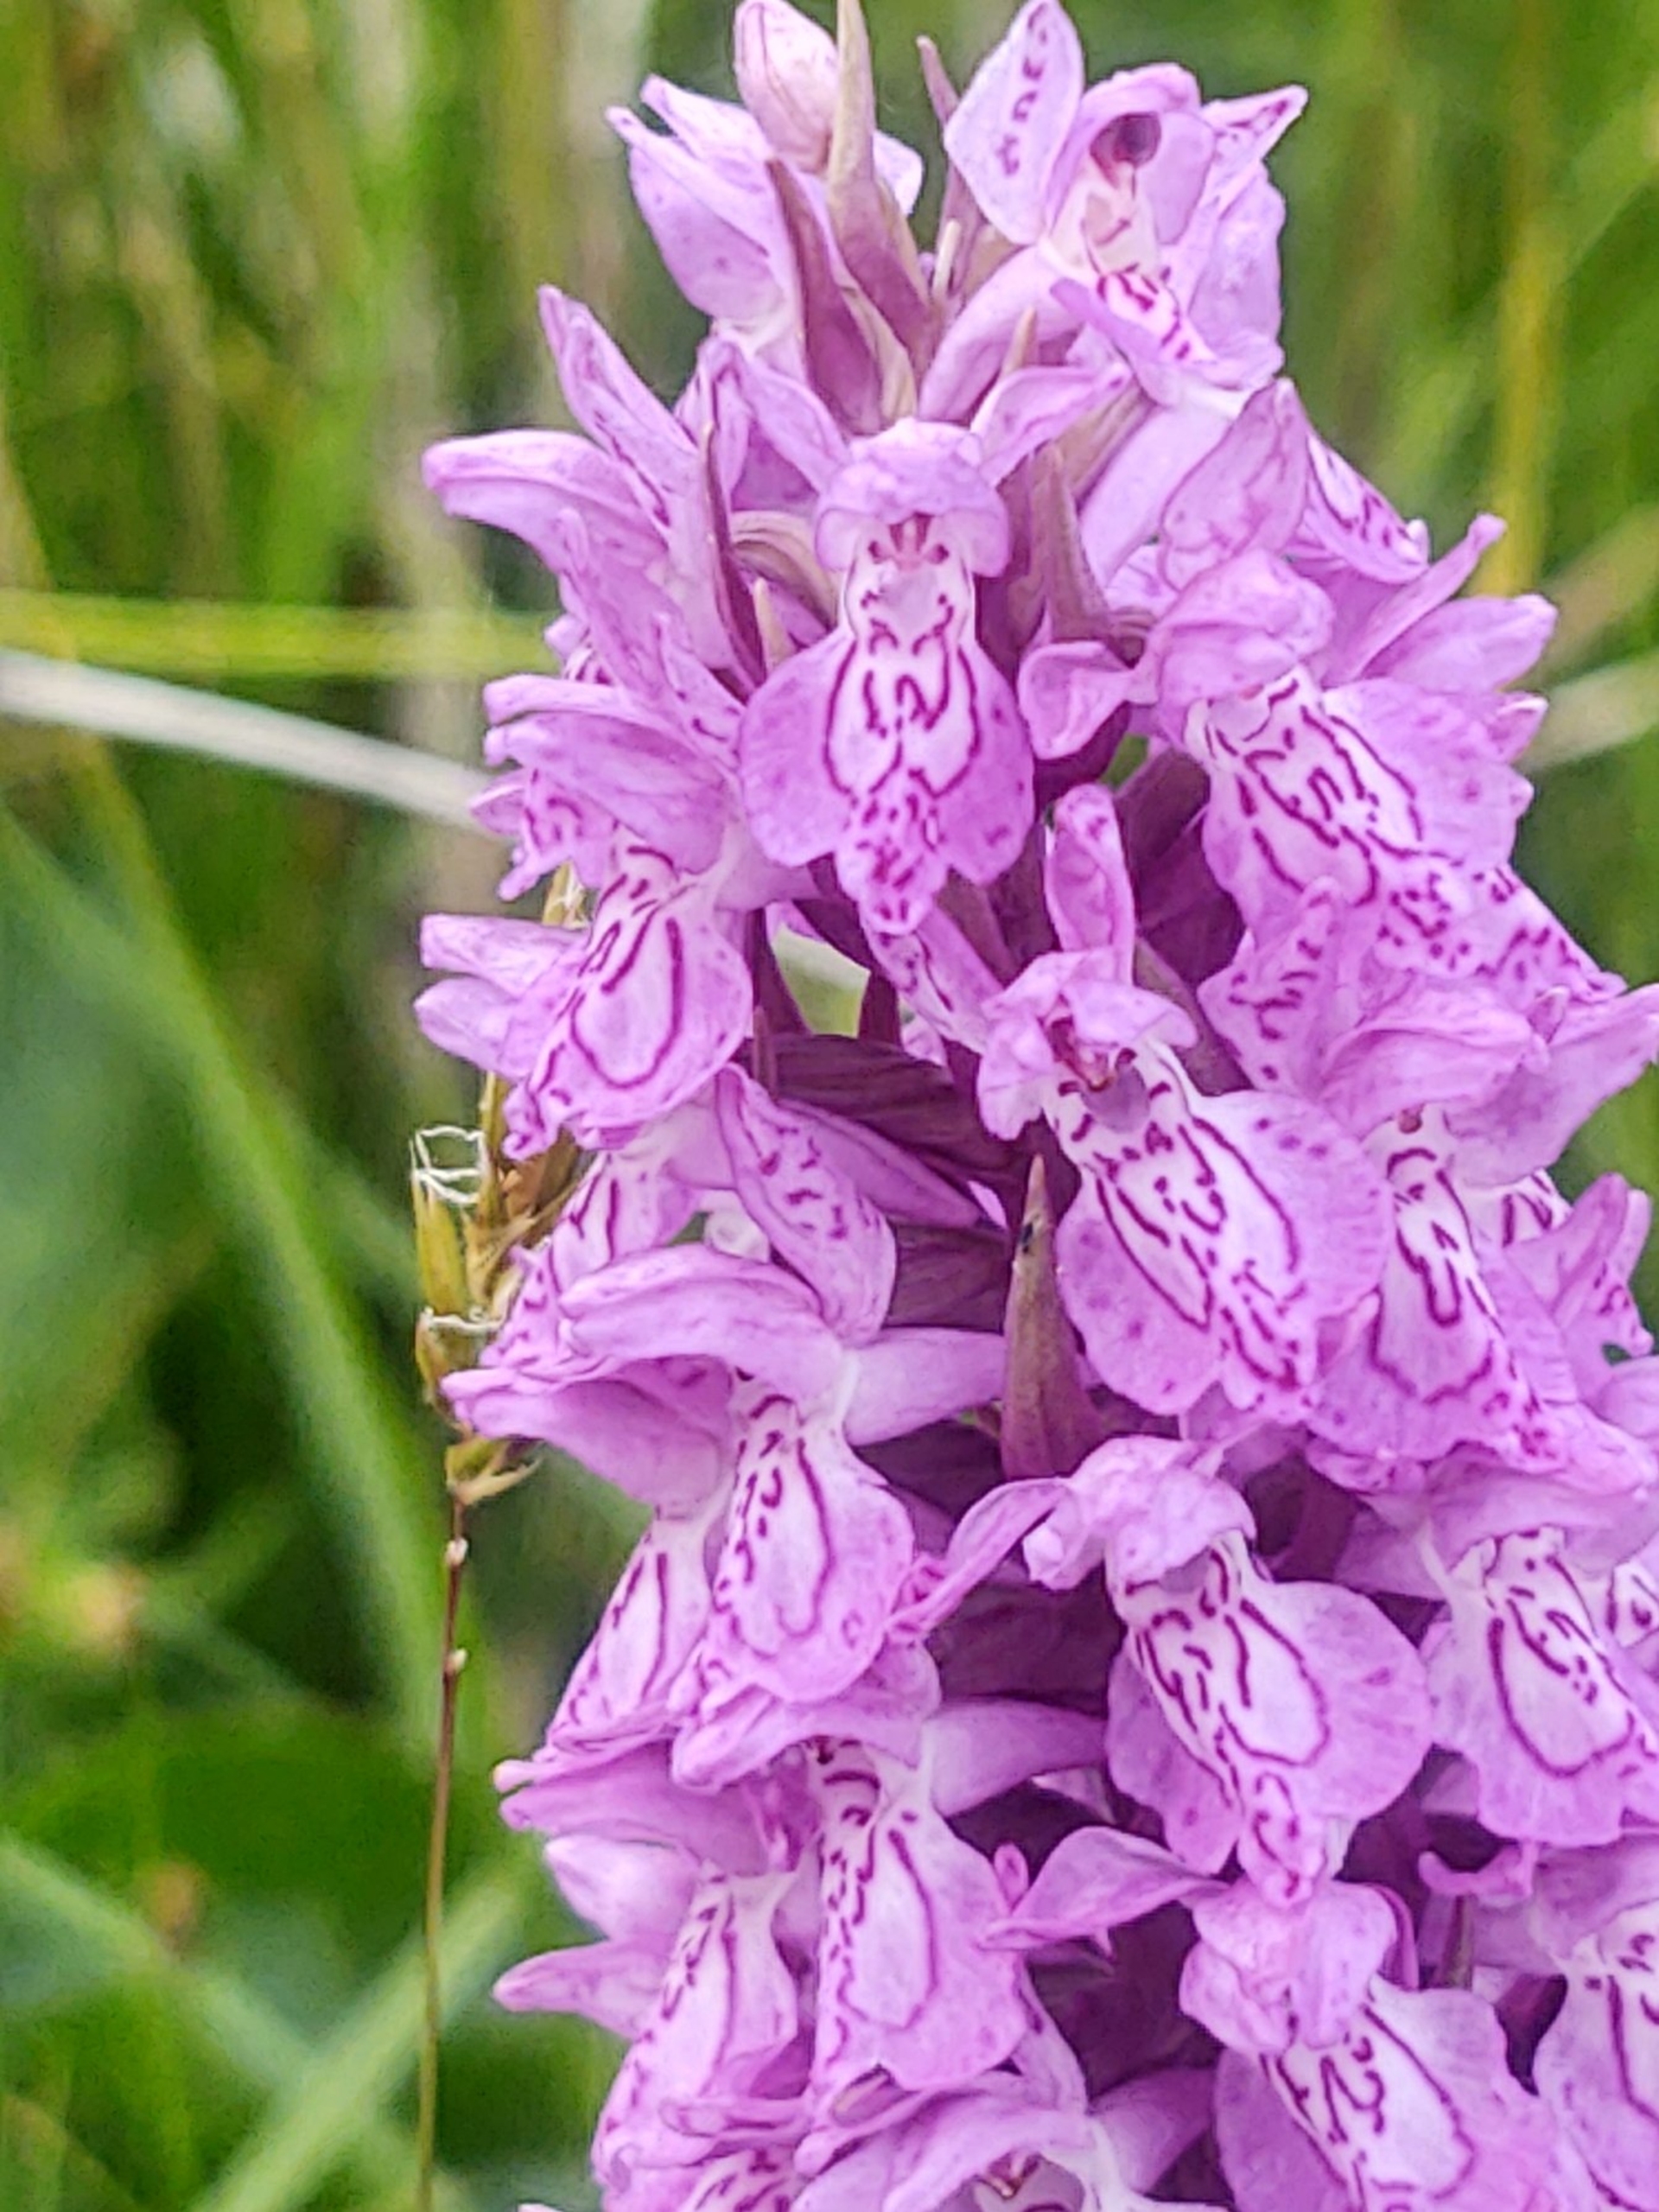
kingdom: Plantae
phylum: Tracheophyta
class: Liliopsida
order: Asparagales
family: Orchidaceae
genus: Dactylorhiza
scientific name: Dactylorhiza majalis
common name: Ringplettet gøgeurt
